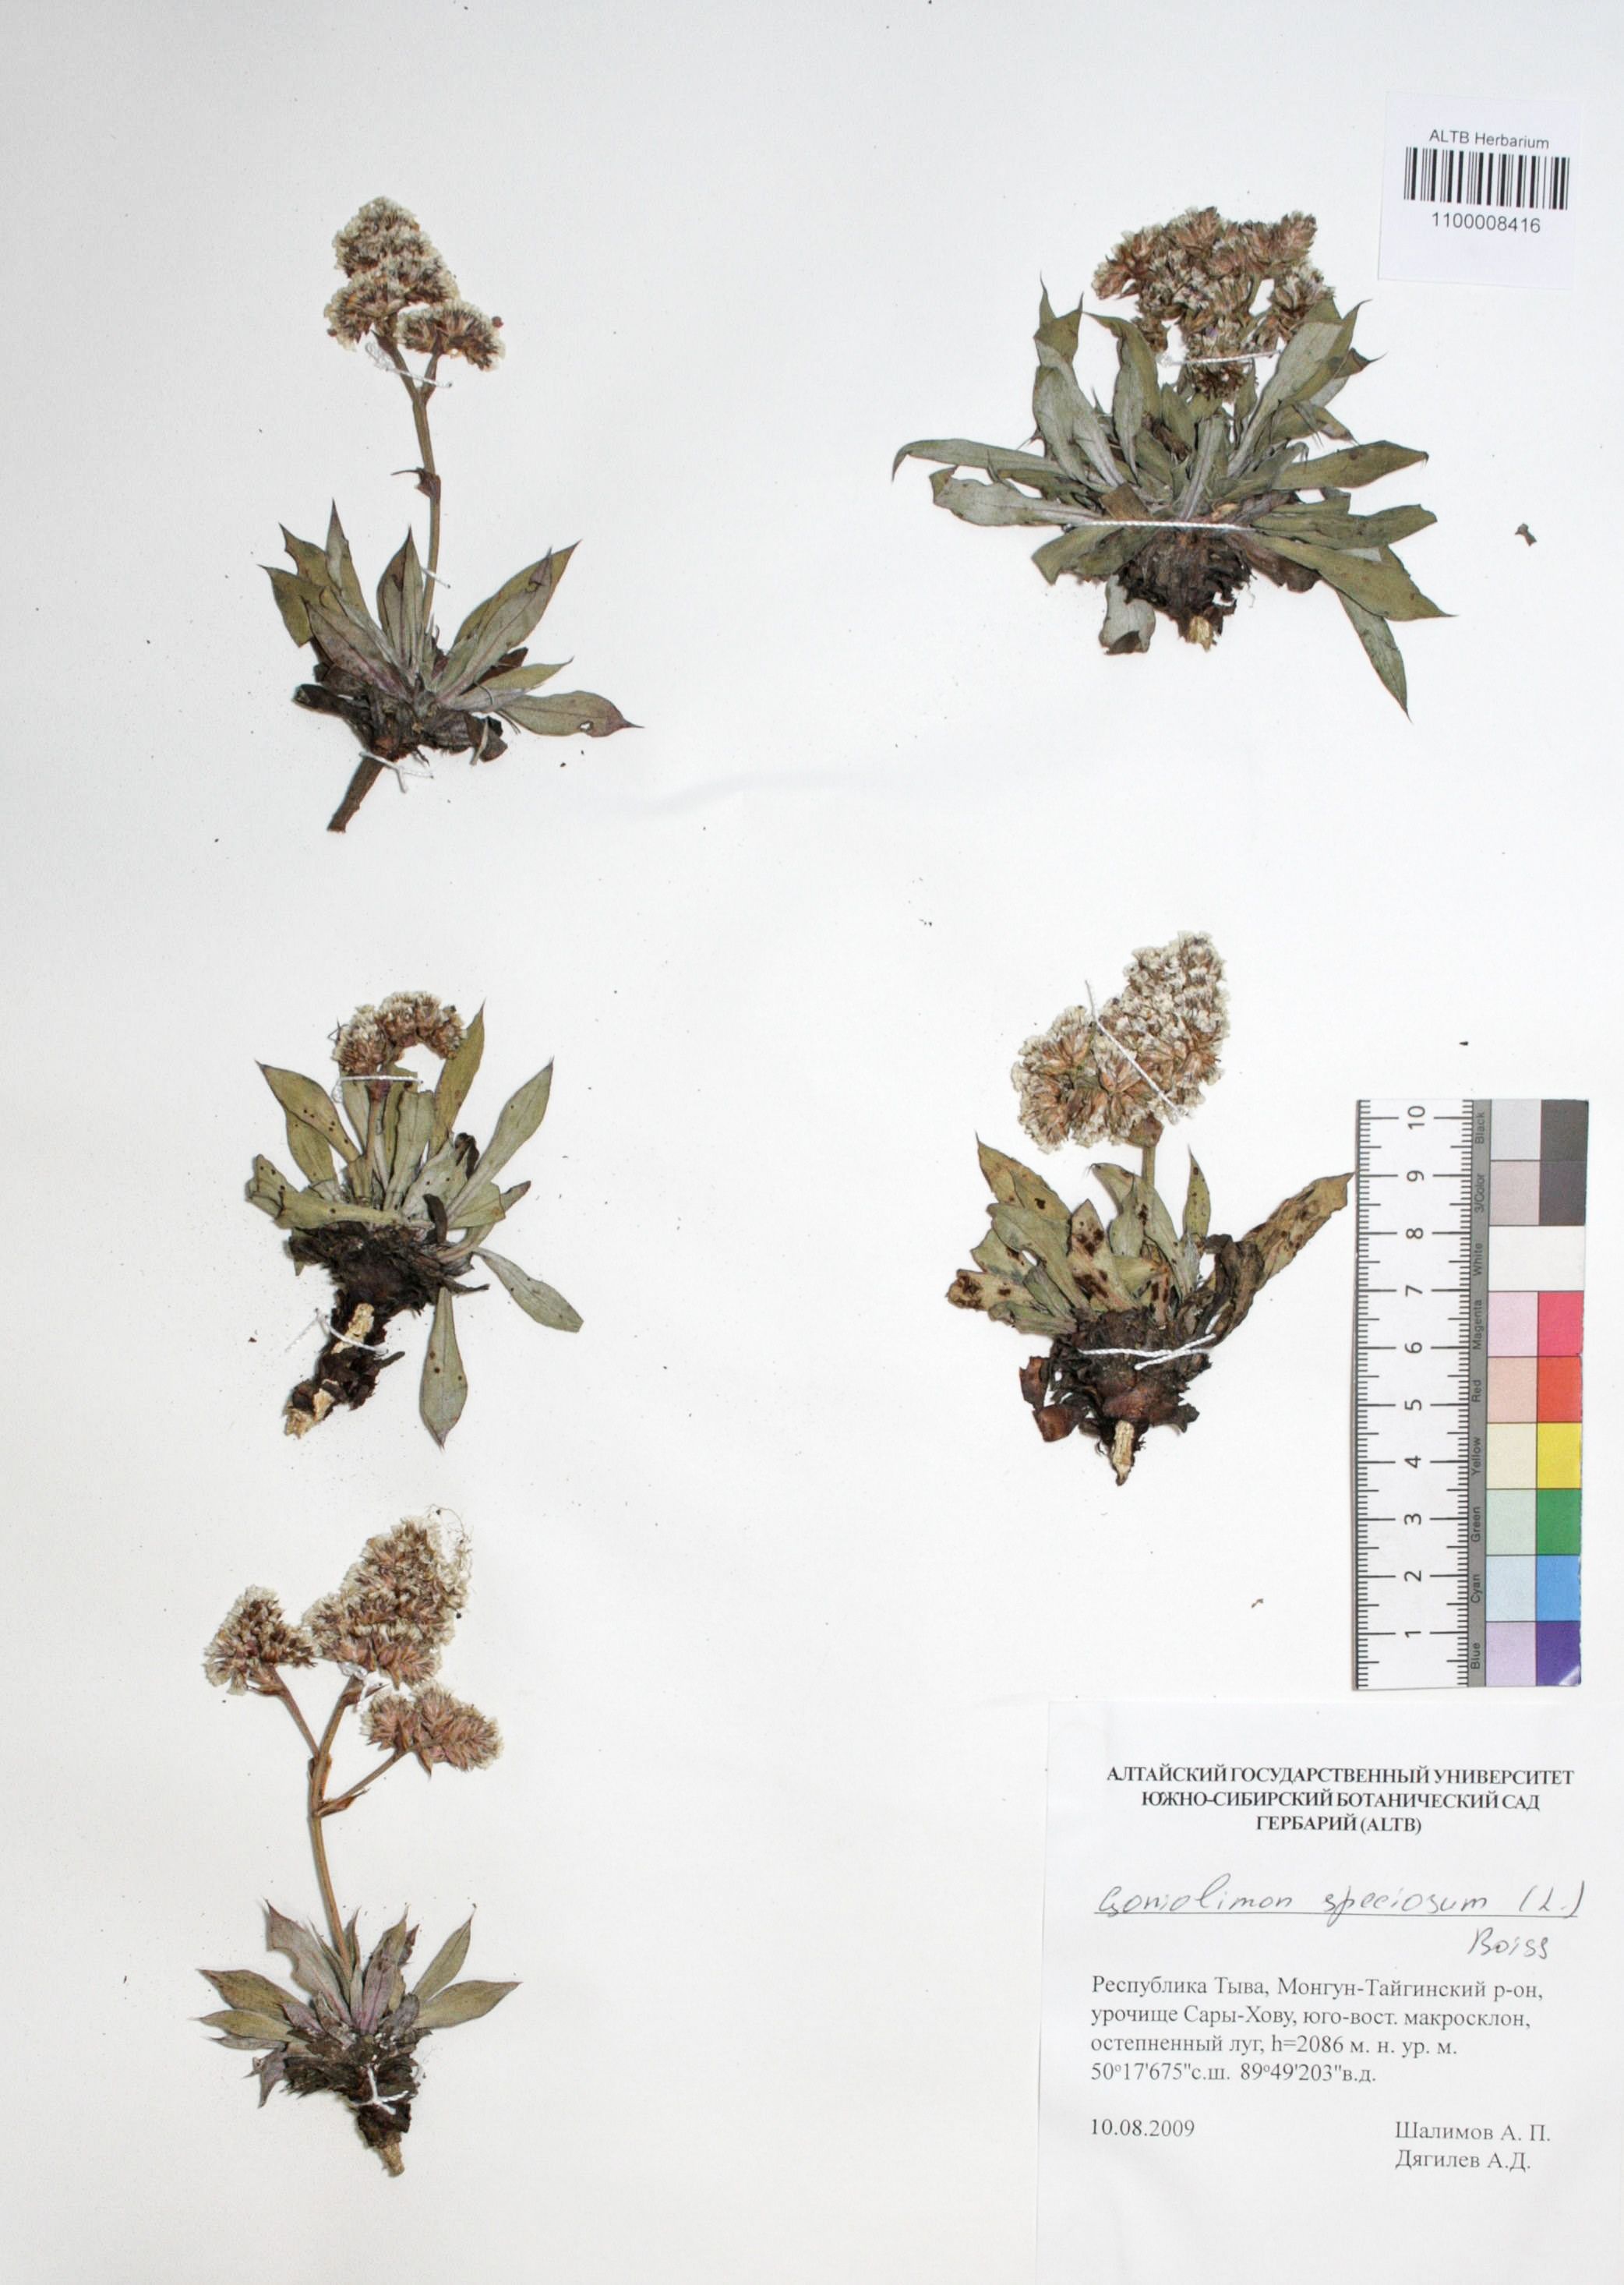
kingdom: Plantae
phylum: Tracheophyta
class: Magnoliopsida
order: Caryophyllales
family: Plumbaginaceae
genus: Goniolimon
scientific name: Goniolimon speciosum
